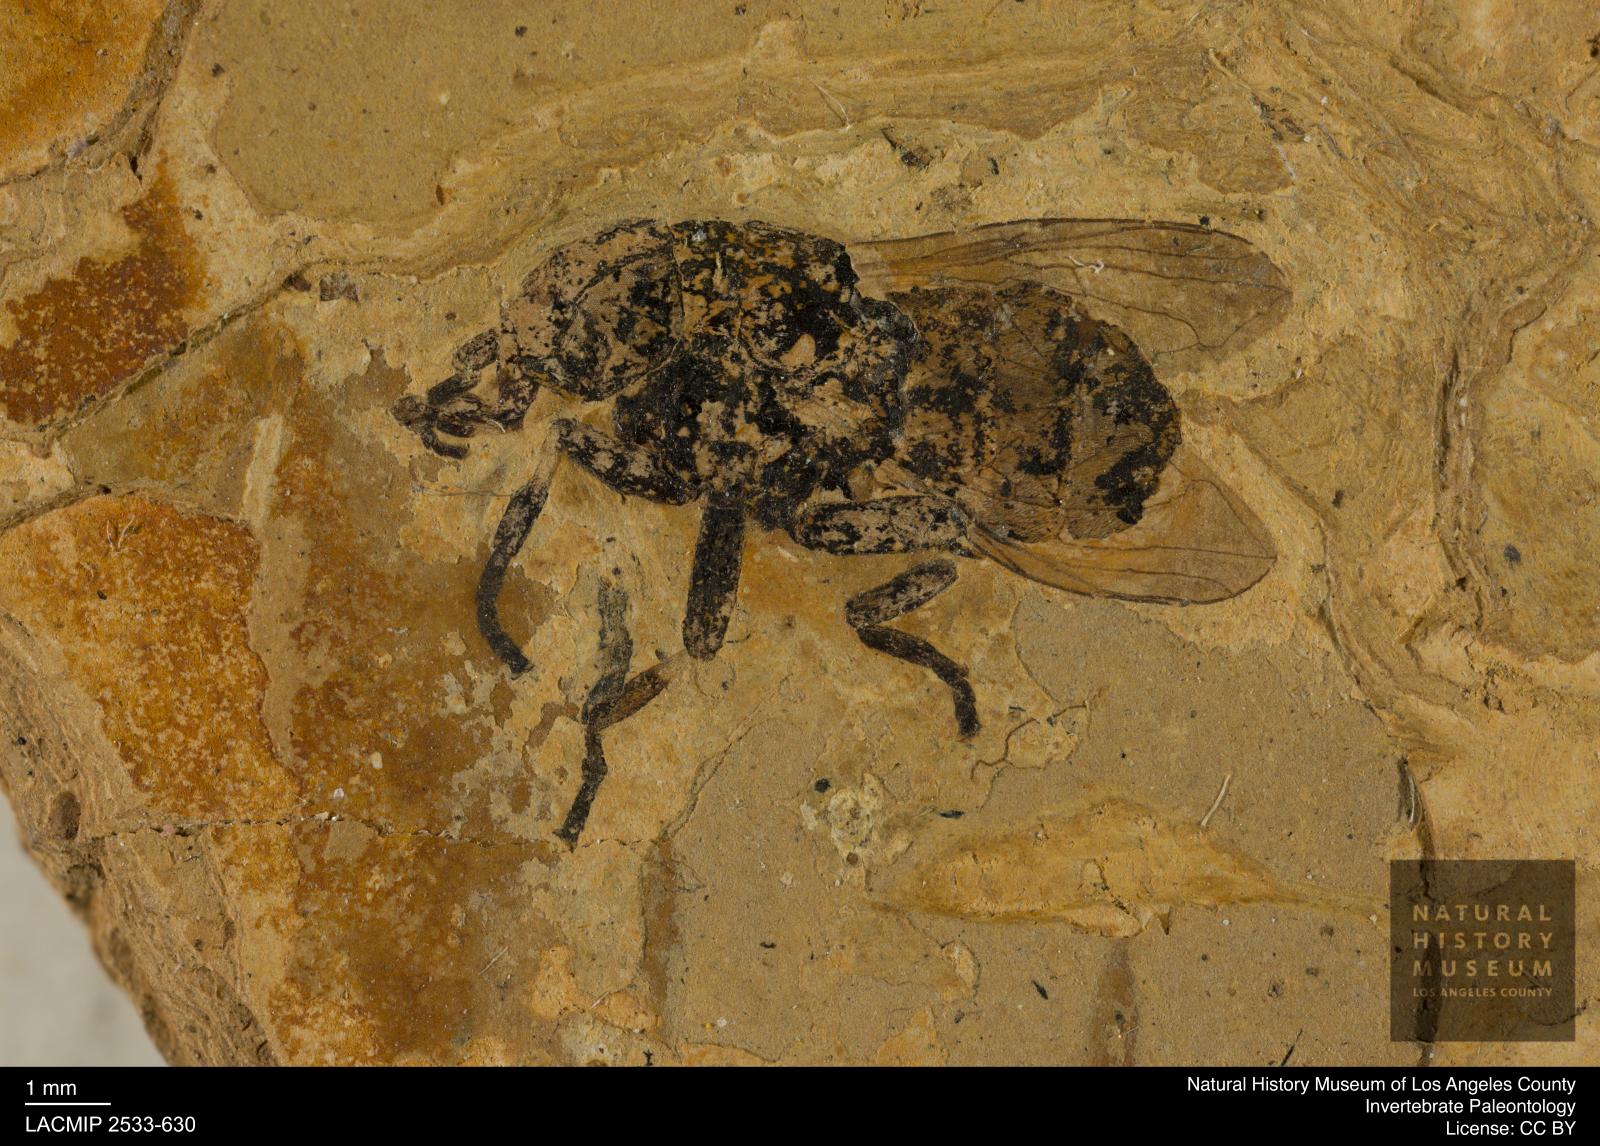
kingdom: Animalia
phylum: Arthropoda
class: Insecta
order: Diptera
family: Syrphidae
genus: Myolepta
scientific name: Myolepta Myiolepta elisabethae
